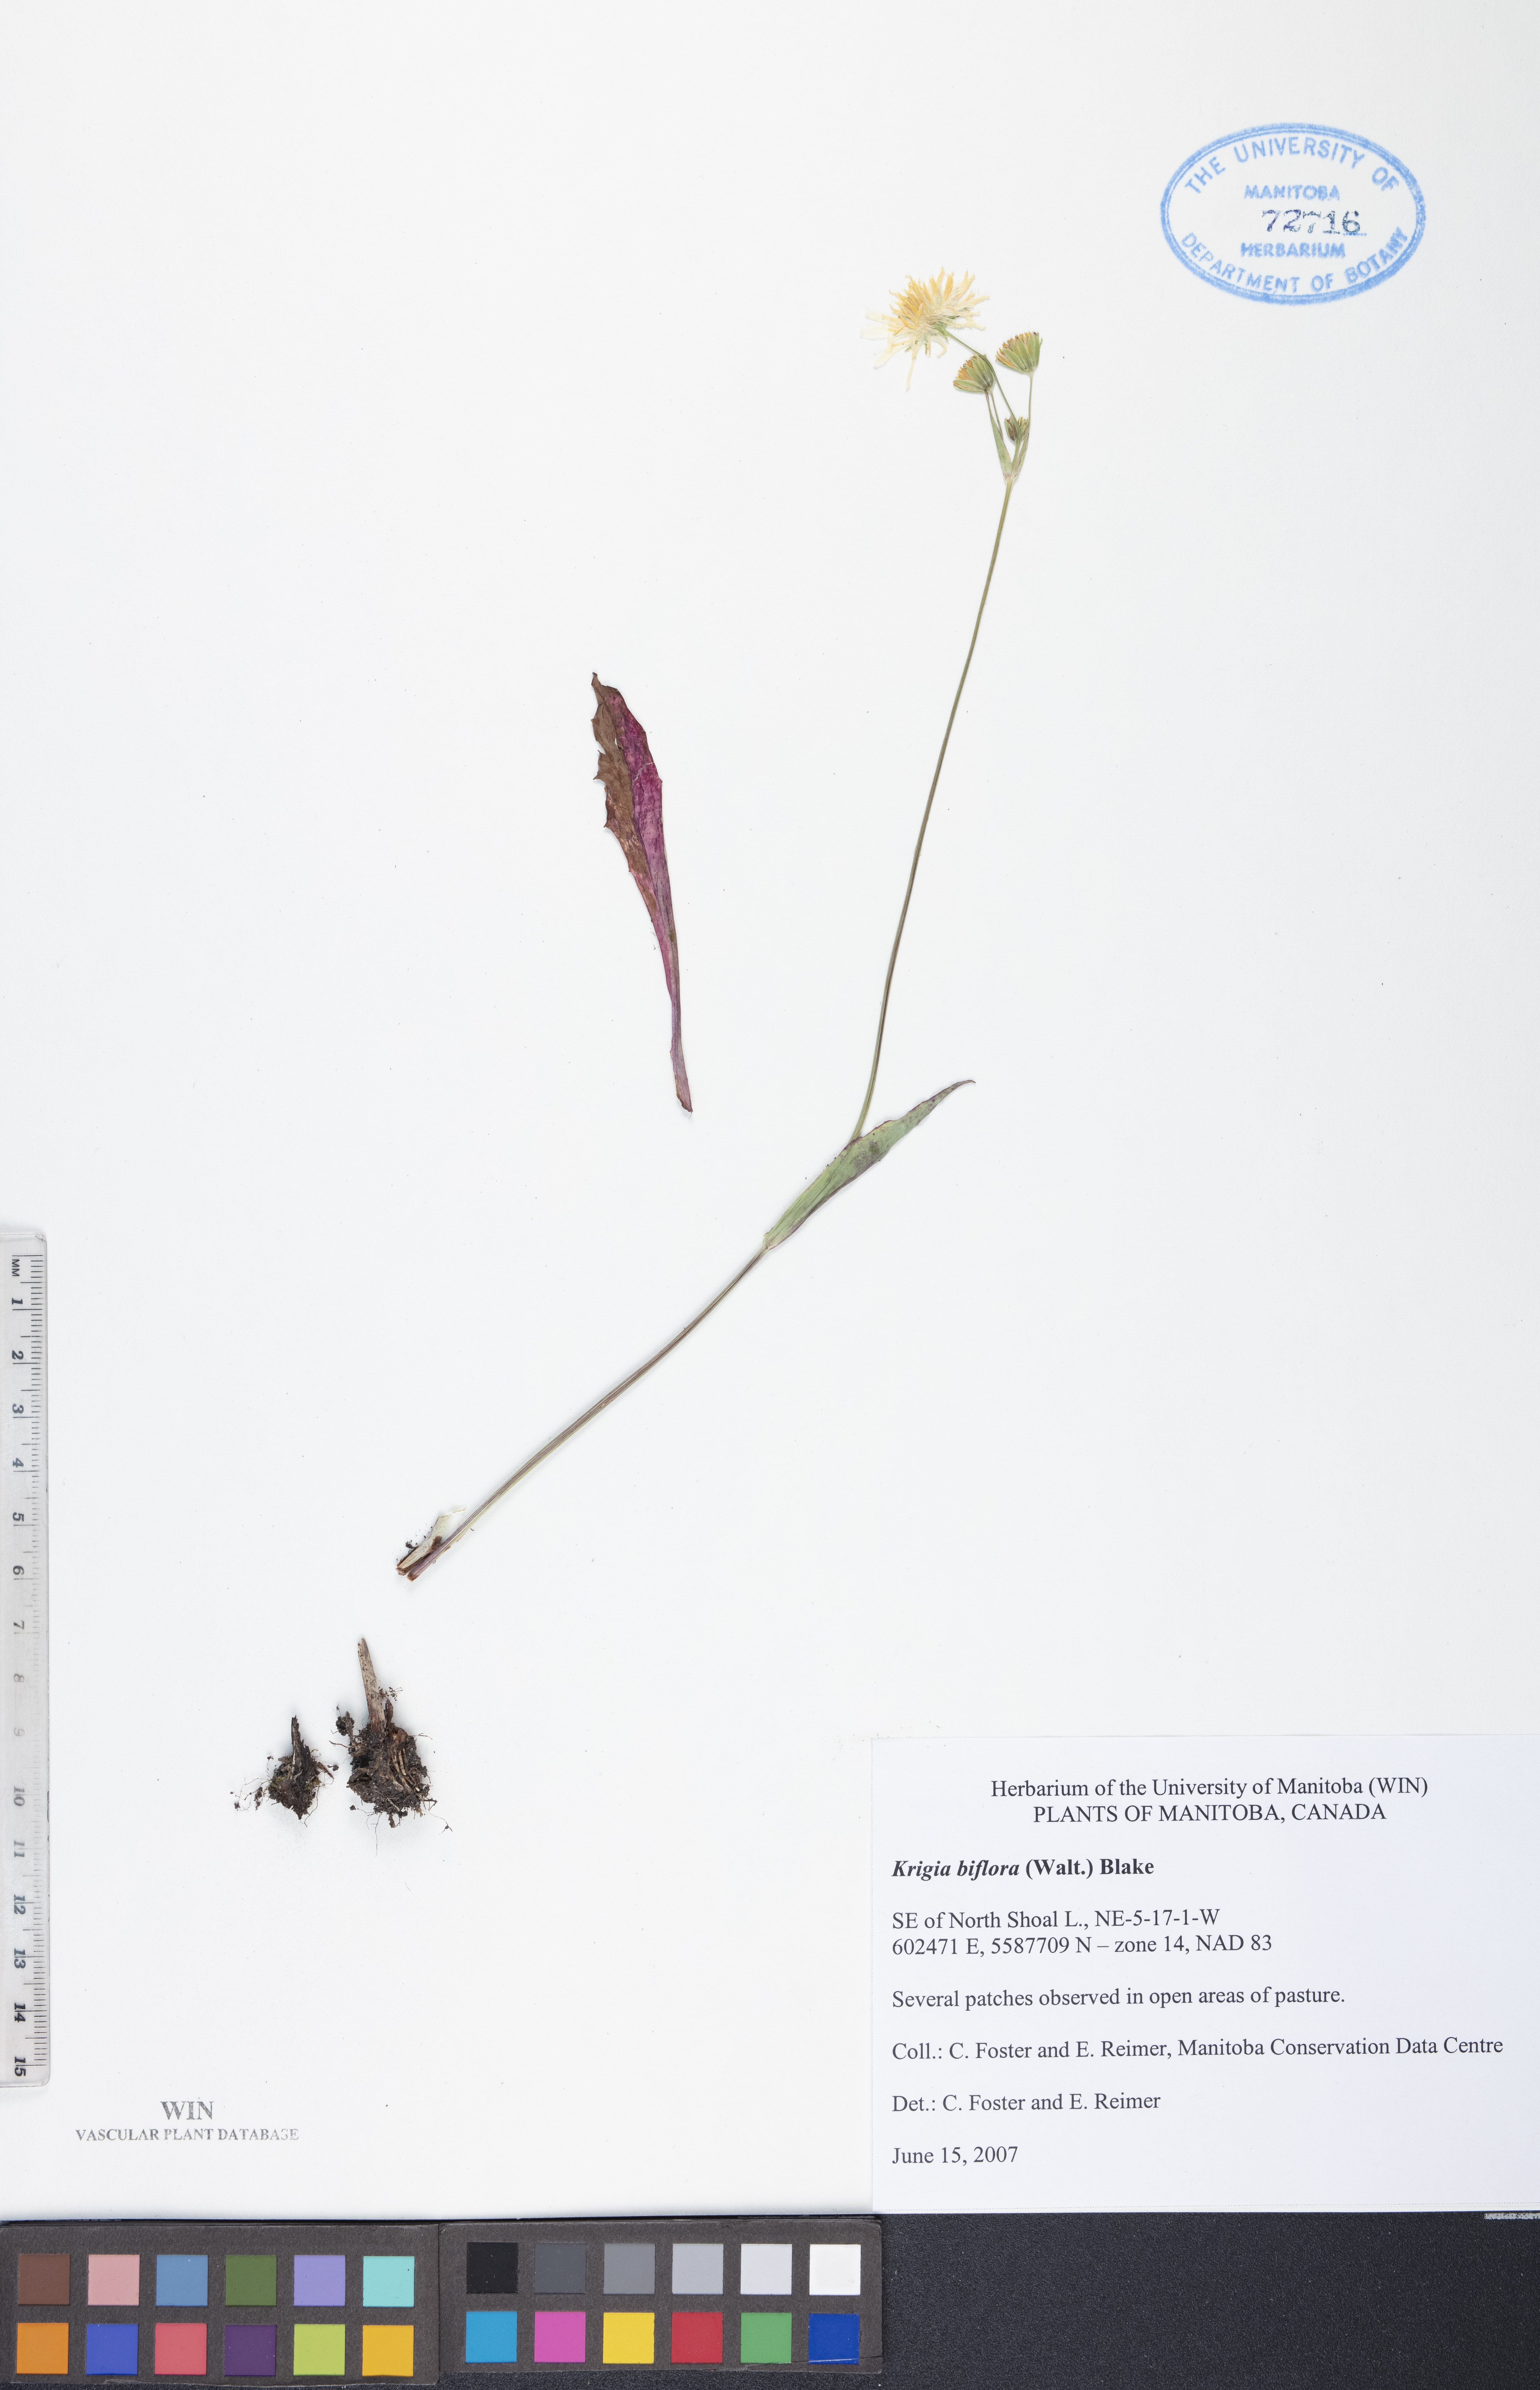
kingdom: Plantae
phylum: Tracheophyta
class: Magnoliopsida
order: Asterales
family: Asteraceae
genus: Krigia
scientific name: Krigia biflora
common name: Orange dwarf-dandelion
